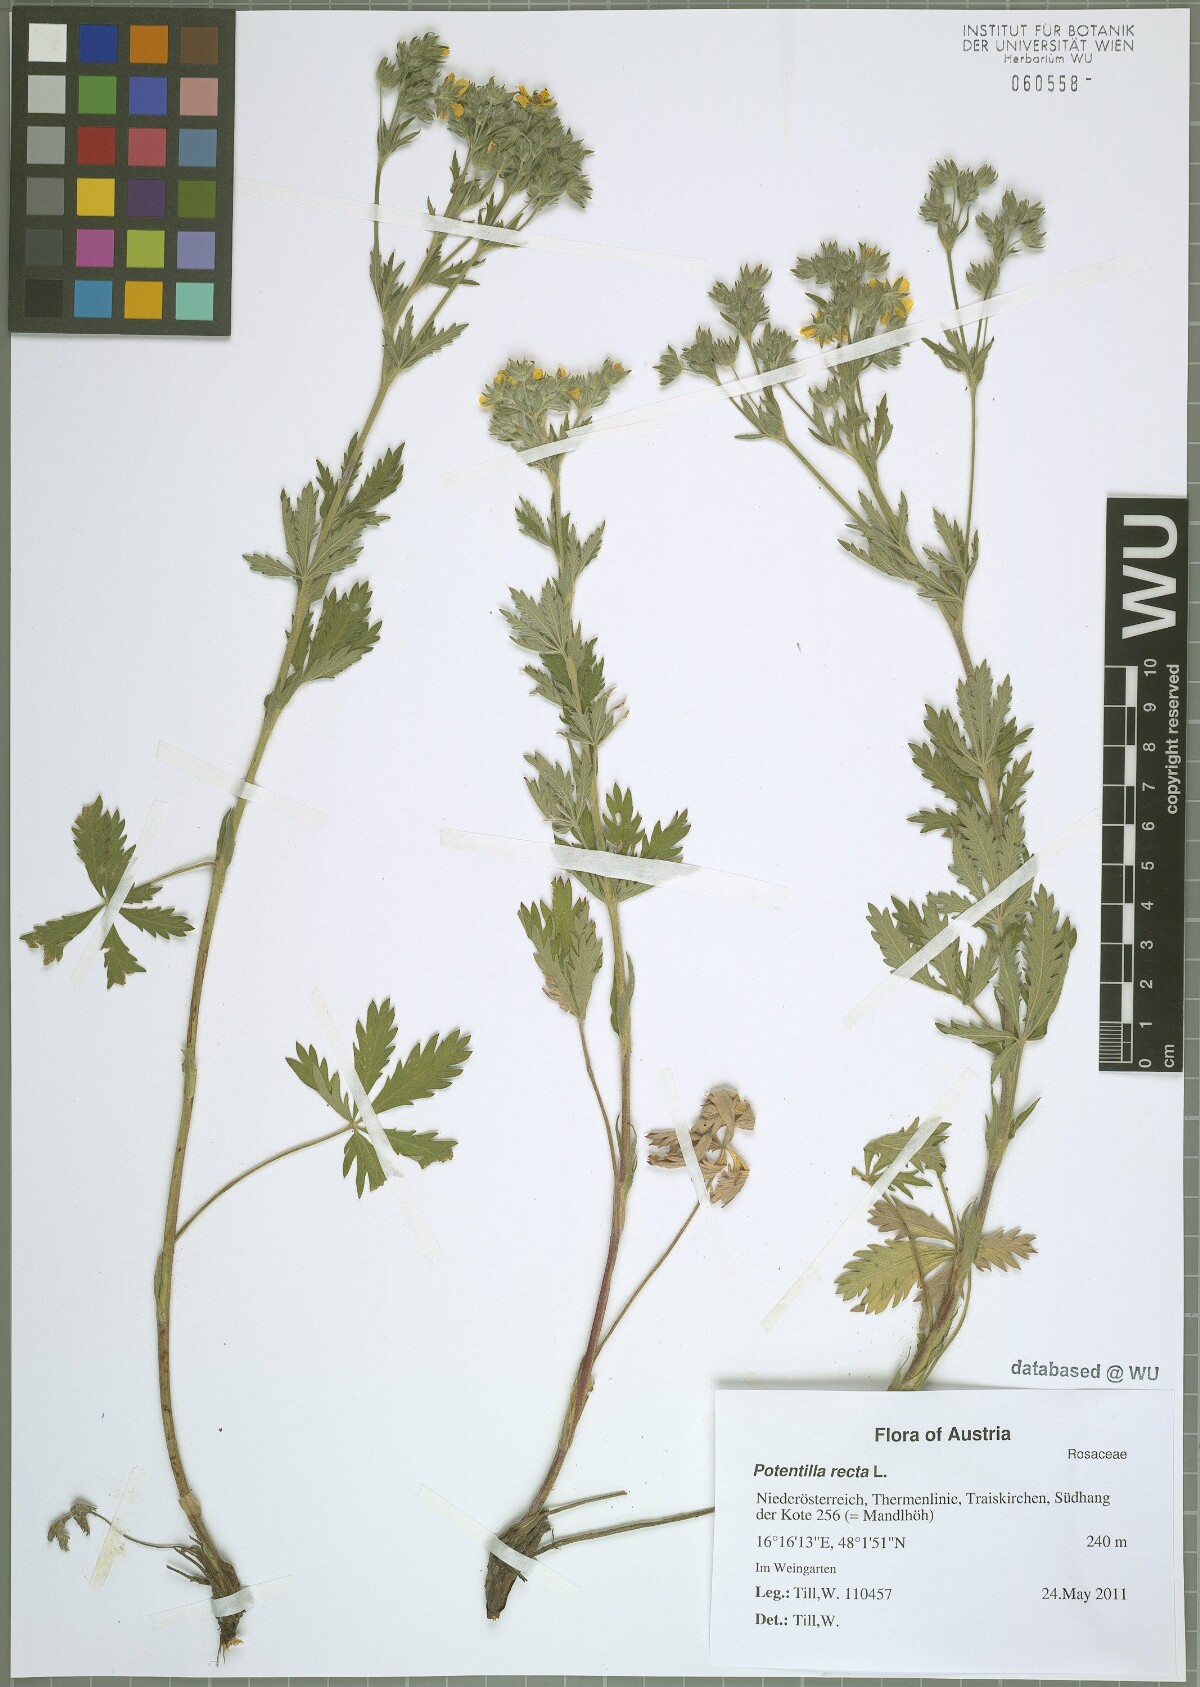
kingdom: Plantae
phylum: Tracheophyta
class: Magnoliopsida
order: Rosales
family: Rosaceae
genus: Potentilla
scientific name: Potentilla recta
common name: Sulphur cinquefoil
